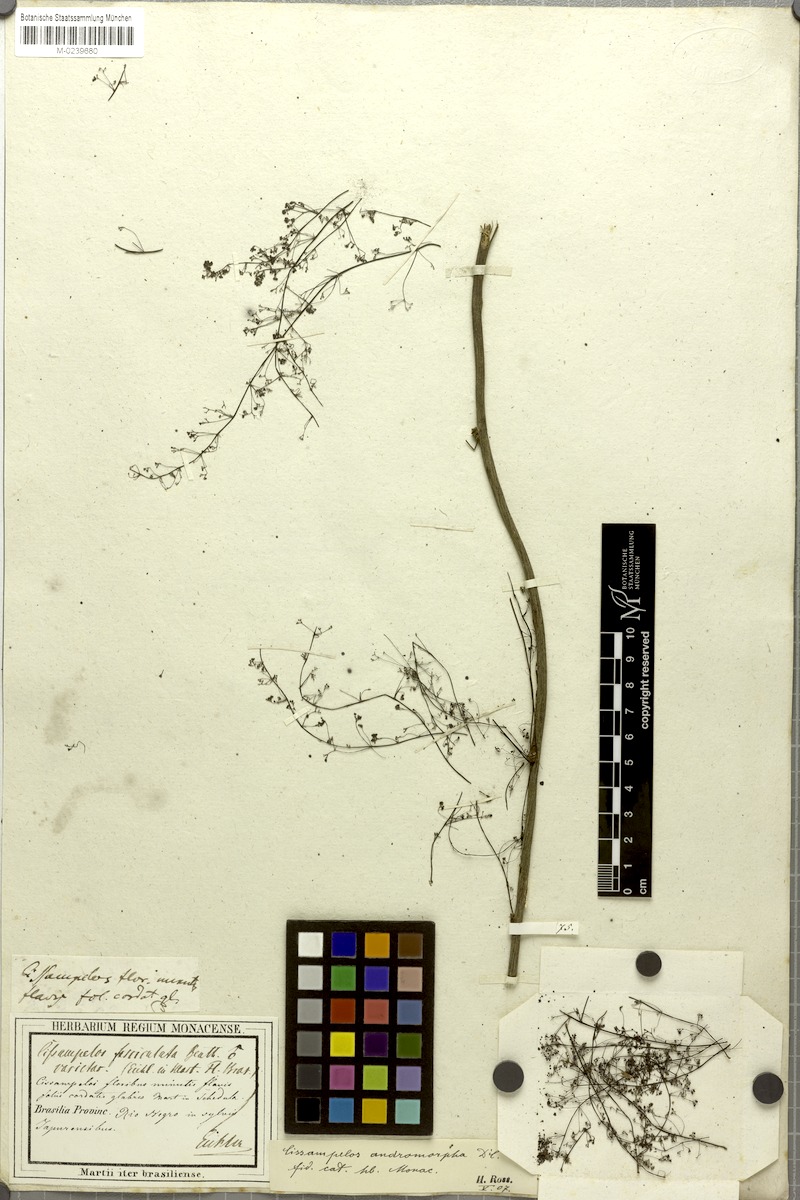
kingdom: Plantae
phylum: Tracheophyta
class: Magnoliopsida
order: Ranunculales
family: Menispermaceae
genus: Cissampelos
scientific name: Cissampelos andromorpha
